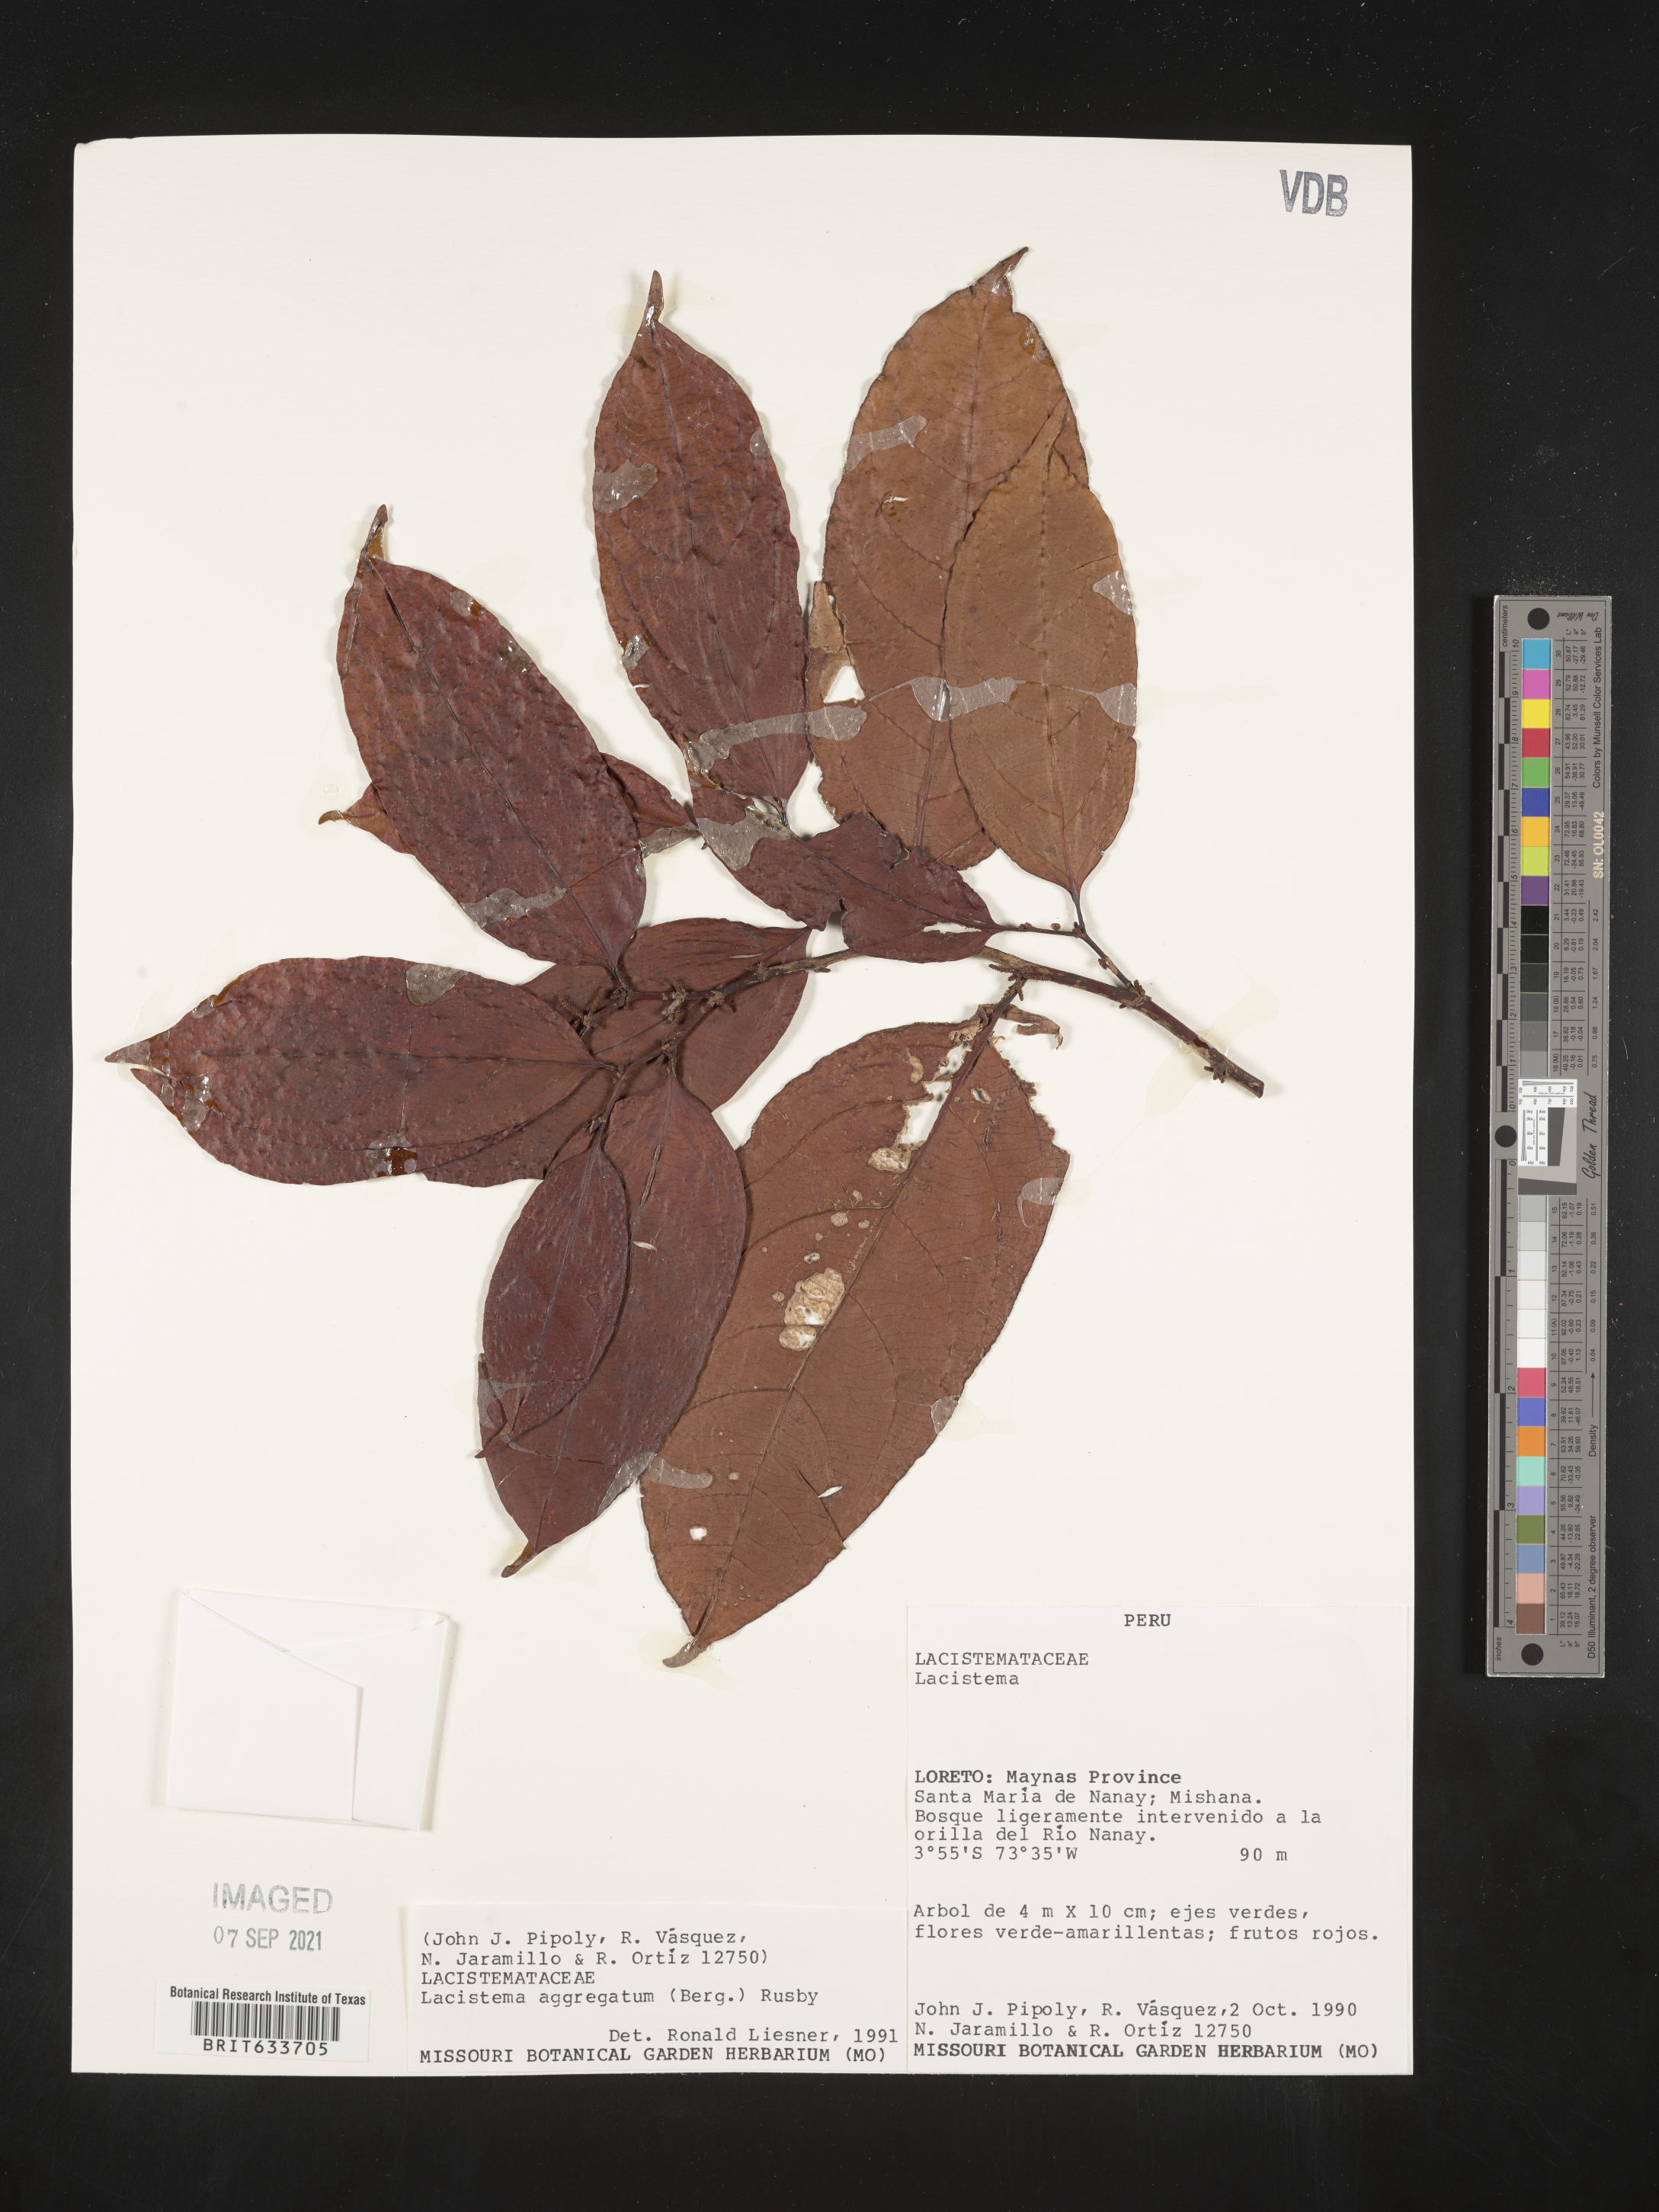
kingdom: Plantae
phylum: Tracheophyta
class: Magnoliopsida
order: Malpighiales
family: Lacistemataceae
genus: Lacistema
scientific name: Lacistema
